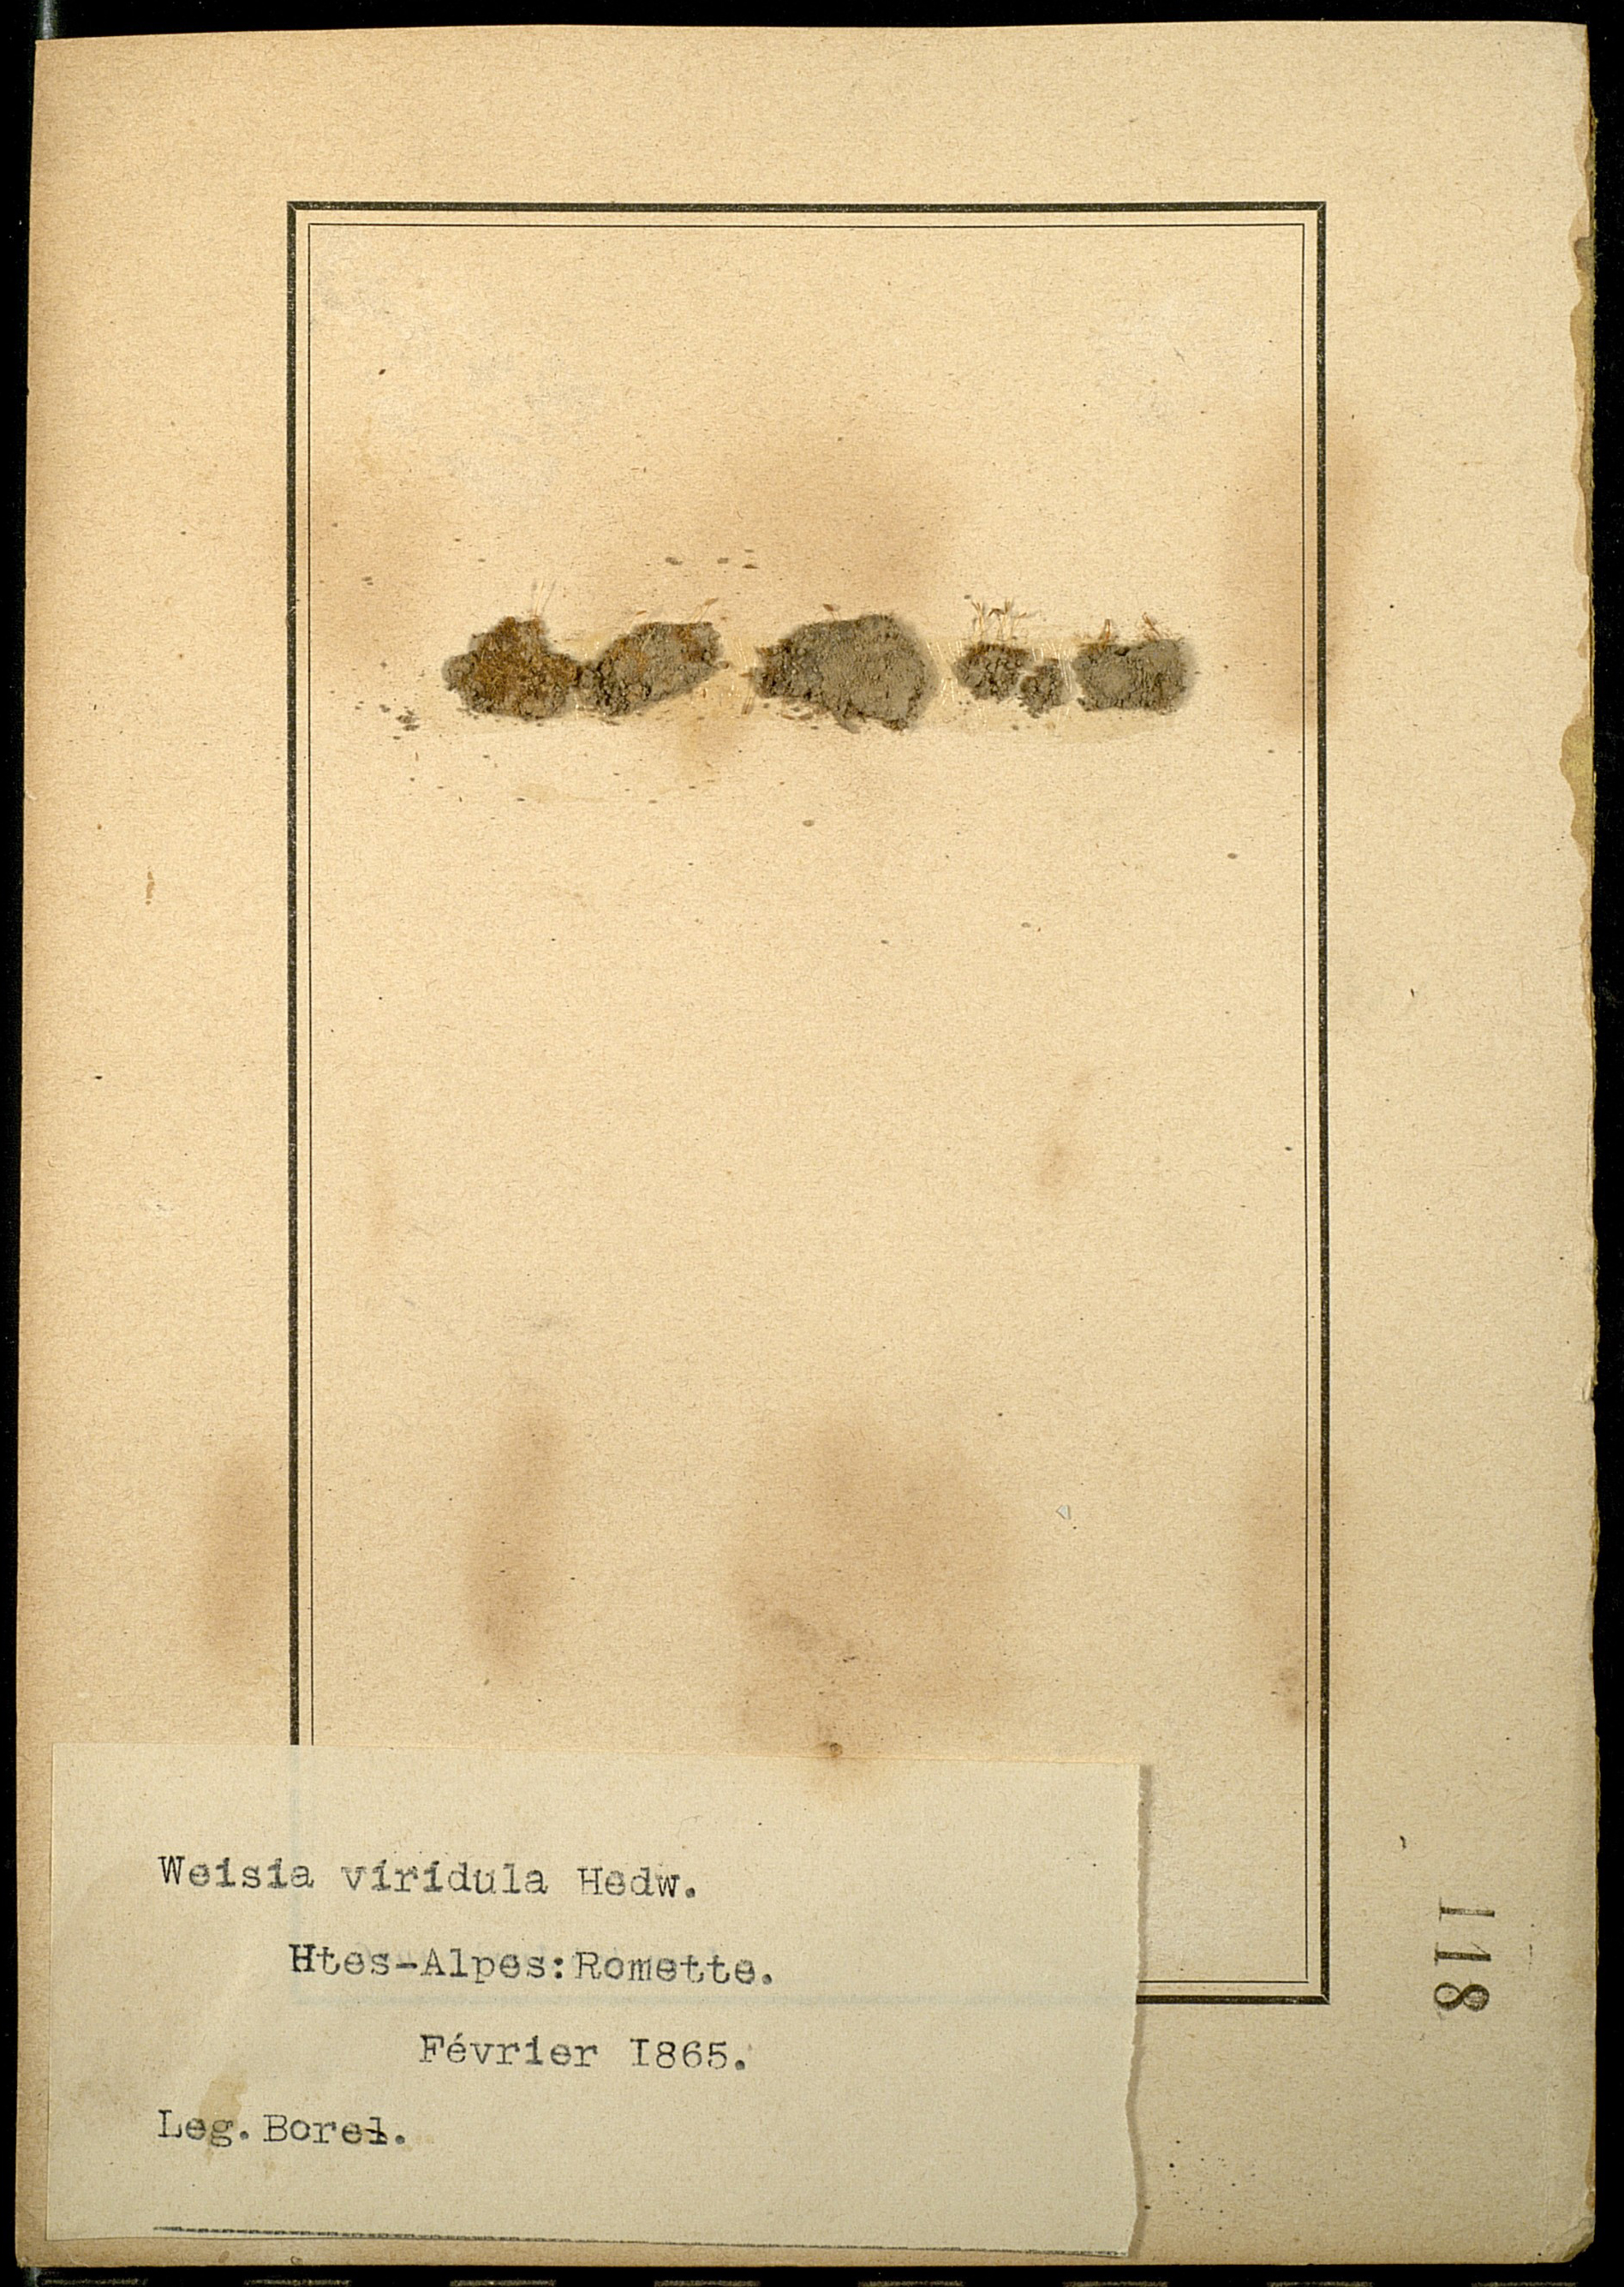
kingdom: Plantae
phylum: Bryophyta
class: Bryopsida
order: Pottiales
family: Pottiaceae
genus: Weissia
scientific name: Weissia controversa
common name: Green-tufted stubble moss
